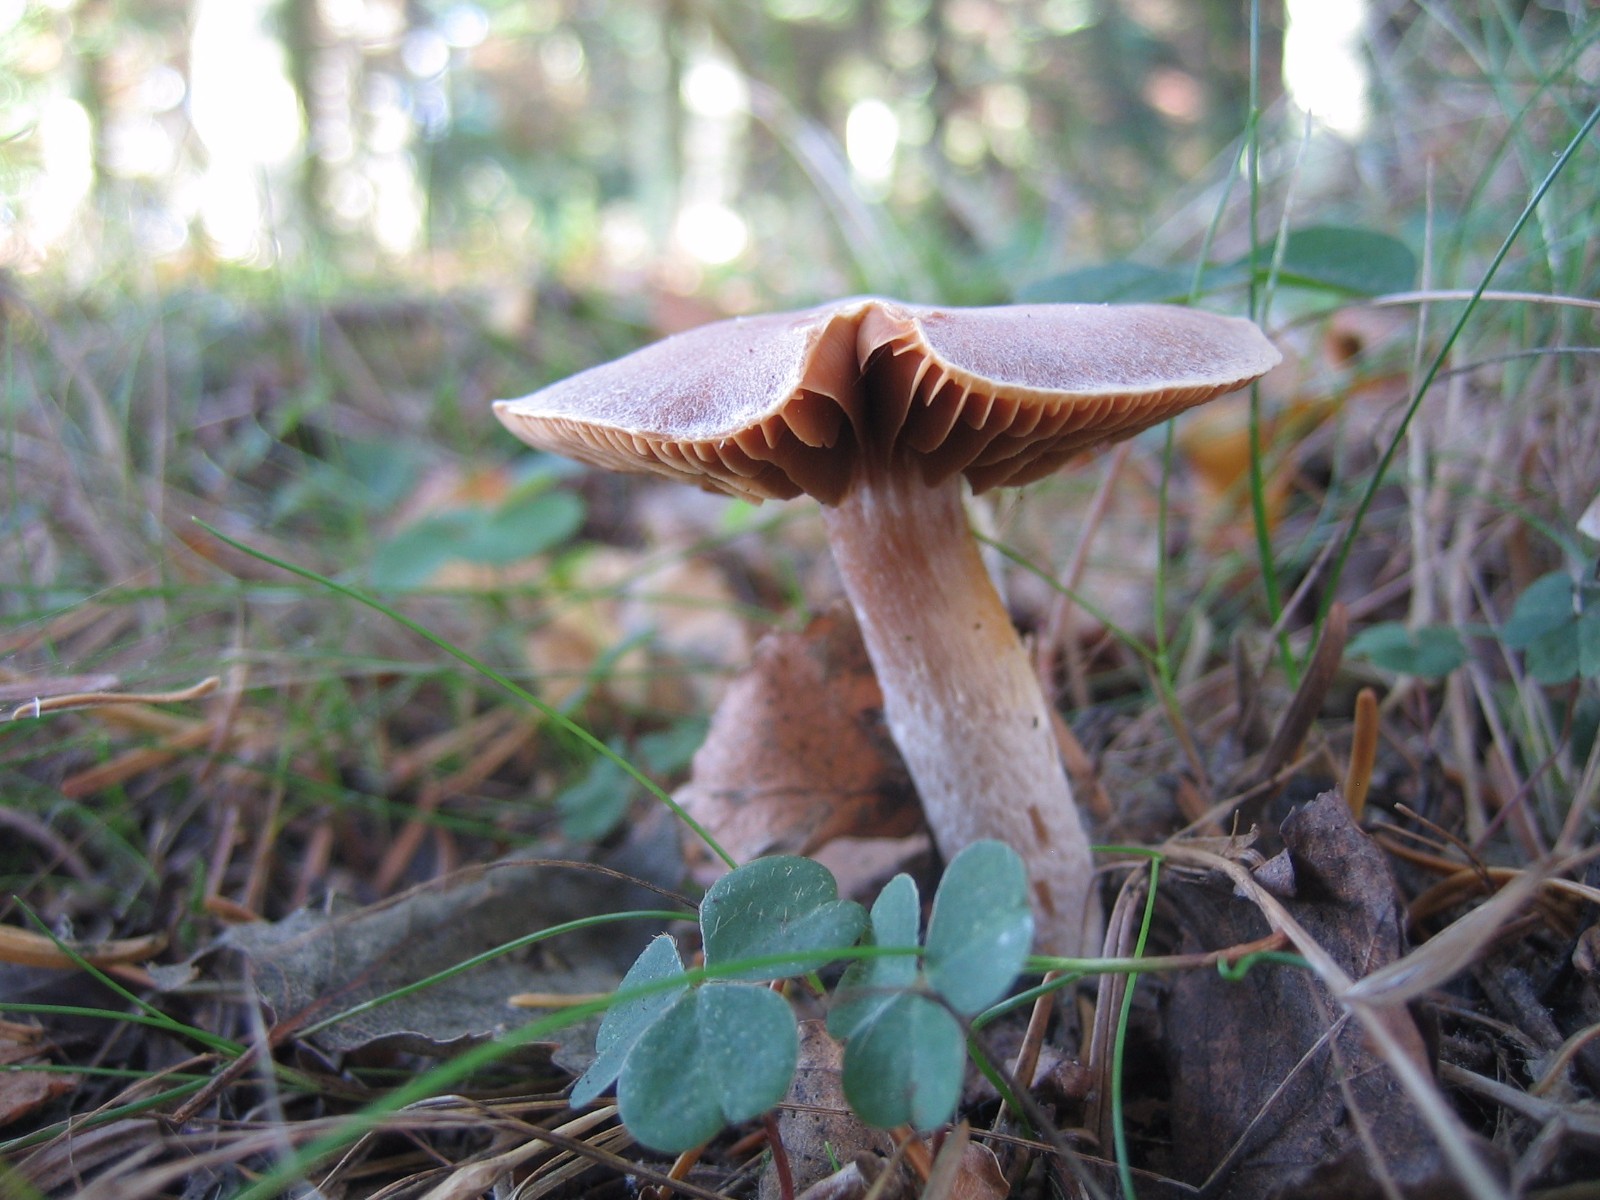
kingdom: Fungi
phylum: Basidiomycota
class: Agaricomycetes
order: Agaricales
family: Cortinariaceae
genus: Cortinarius
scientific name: Cortinarius
